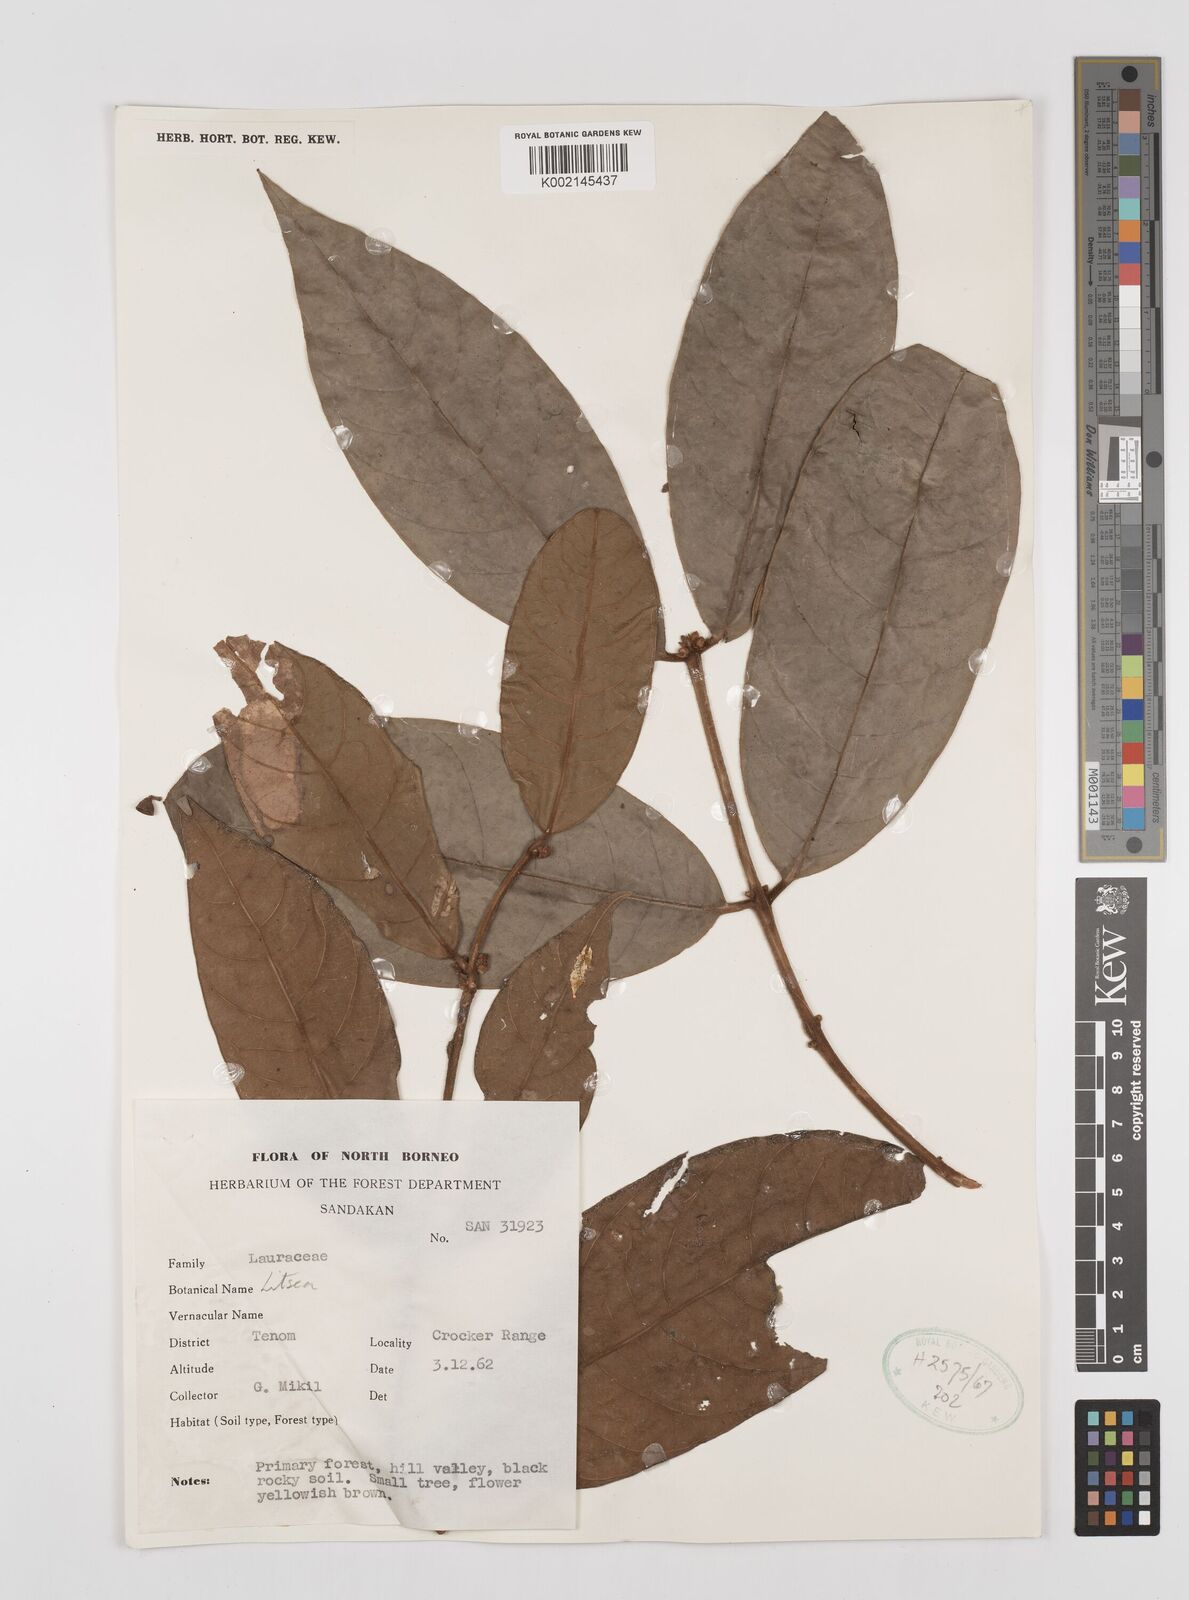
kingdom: Plantae
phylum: Tracheophyta
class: Magnoliopsida
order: Laurales
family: Lauraceae
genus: Litsea
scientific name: Litsea
